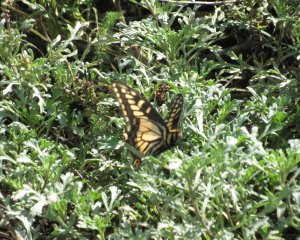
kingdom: Animalia
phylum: Arthropoda
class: Insecta
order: Lepidoptera
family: Papilionidae
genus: Papilio
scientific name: Papilio zelicaon
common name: Anise Swallowtail
